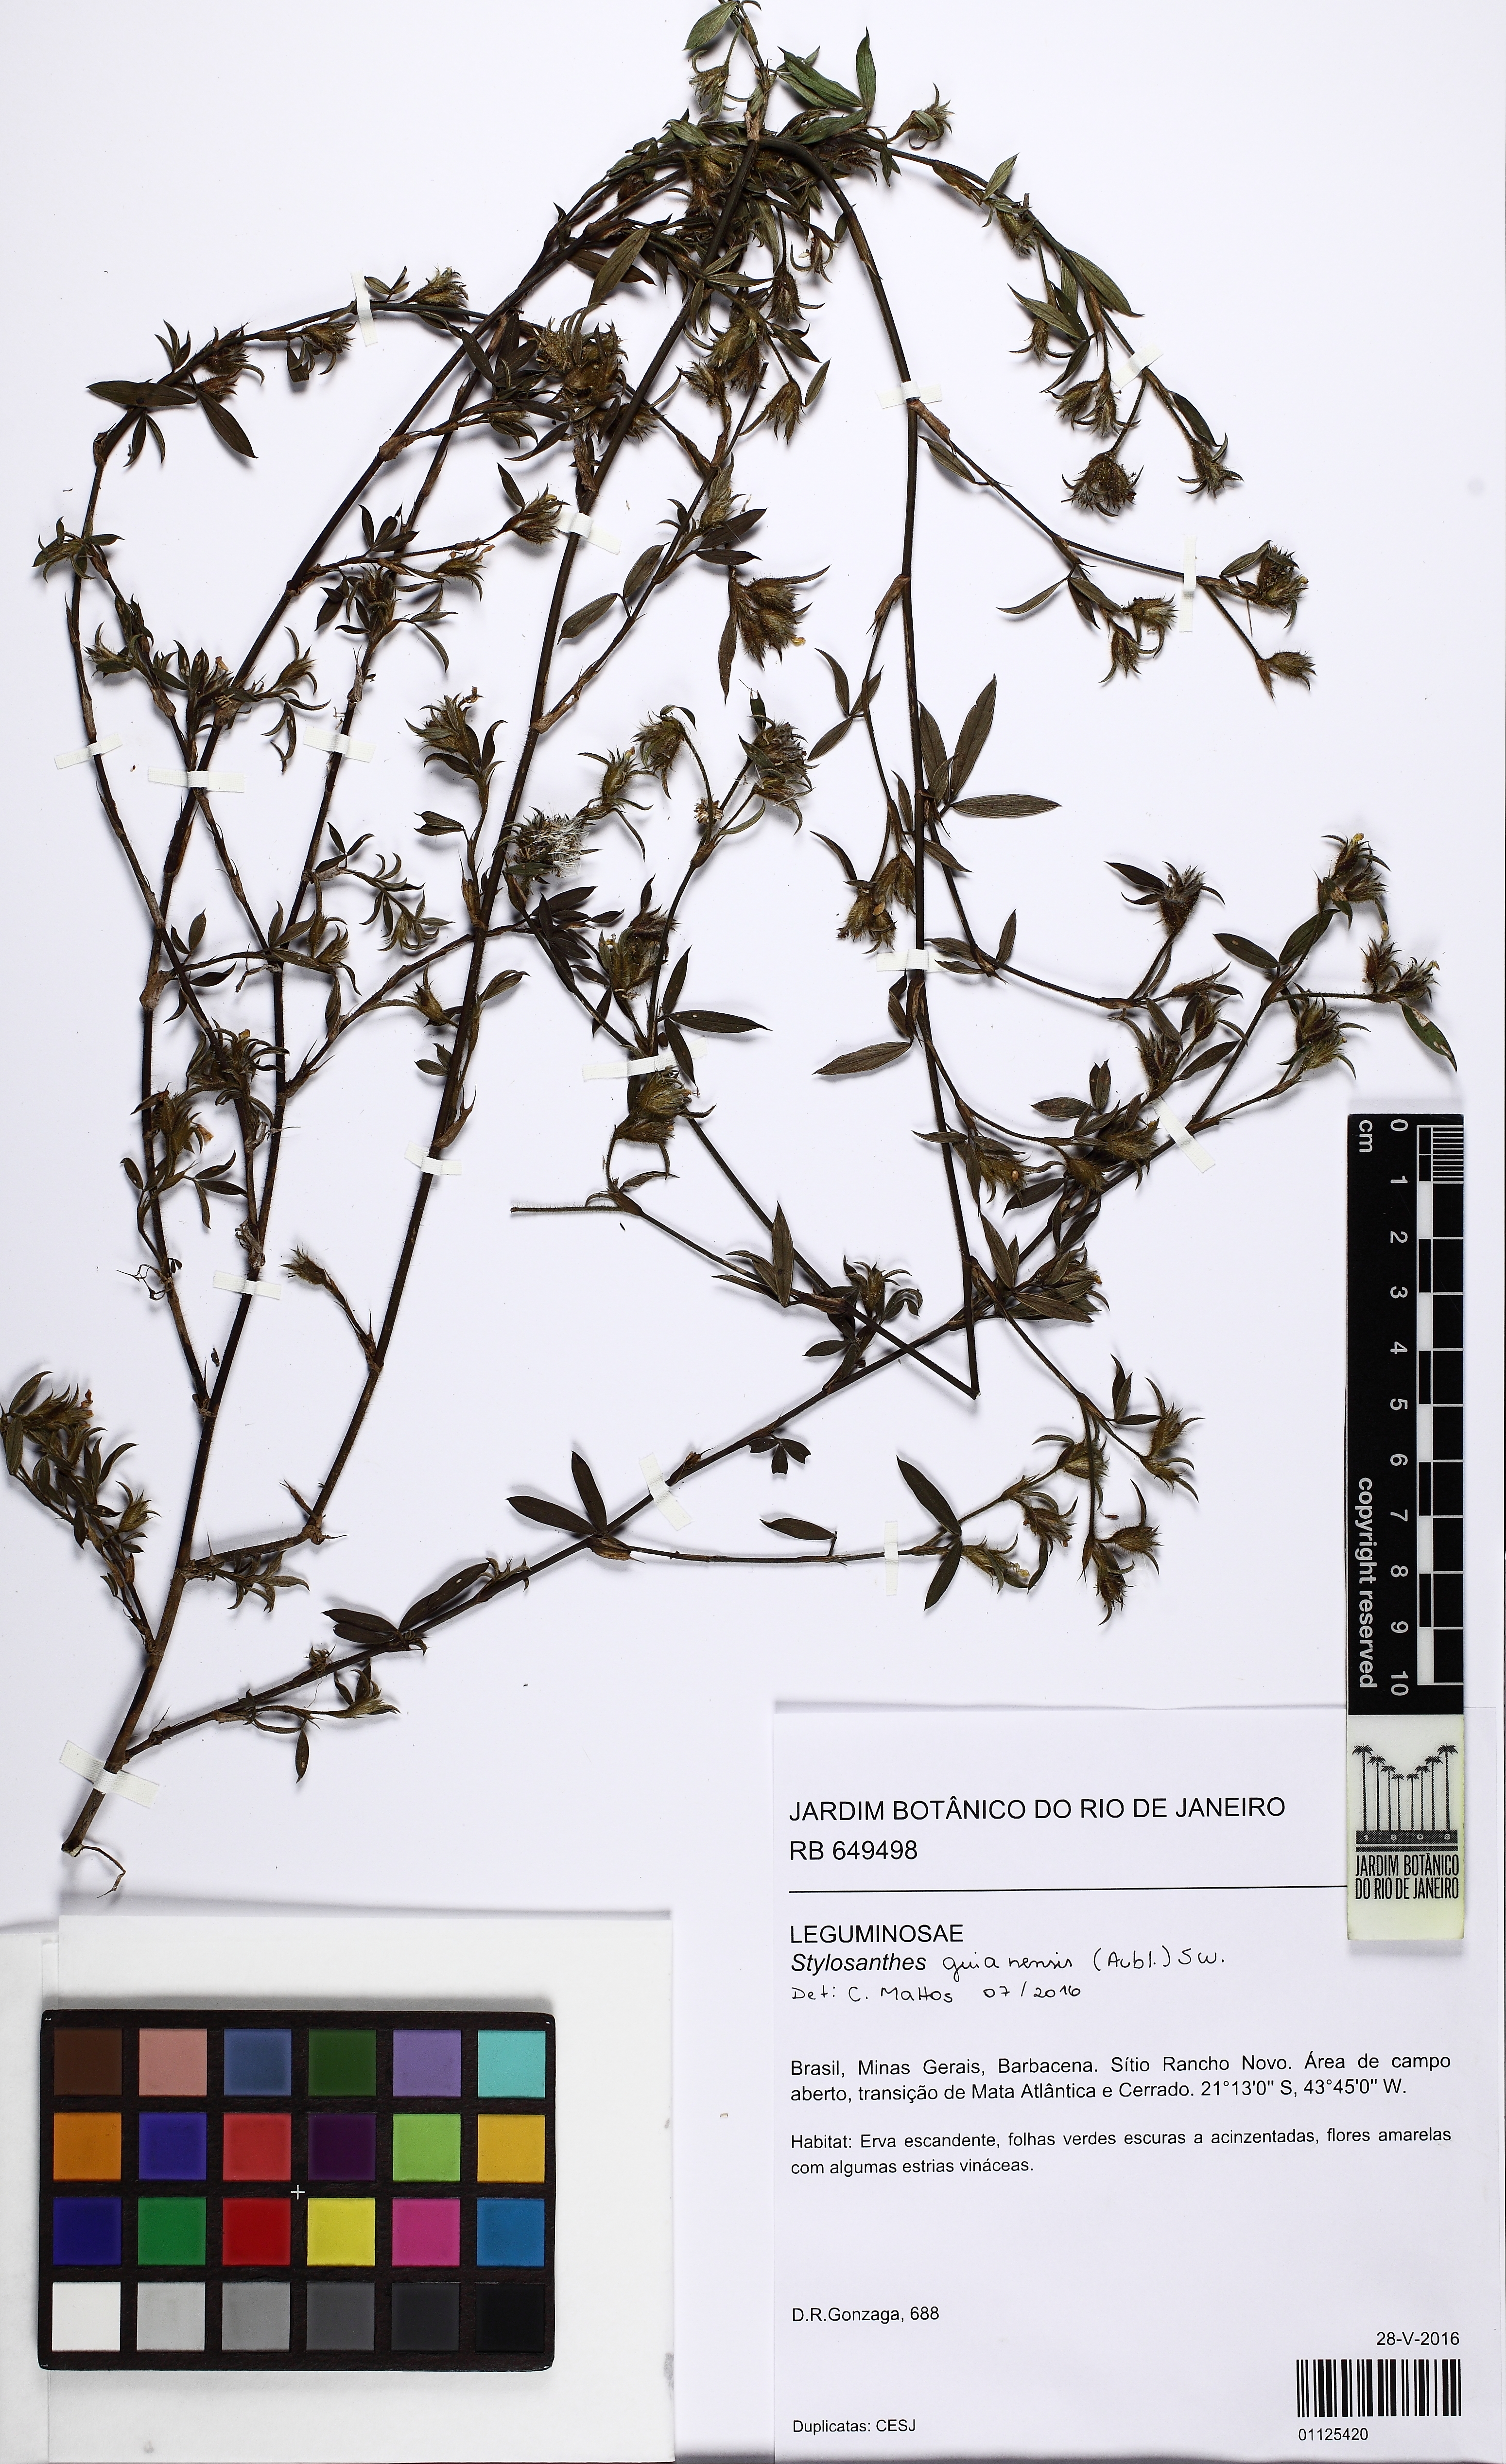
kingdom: Plantae
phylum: Tracheophyta
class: Magnoliopsida
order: Fabales
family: Fabaceae
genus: Stylosanthes
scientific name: Stylosanthes guianensis
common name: Pencil flower
